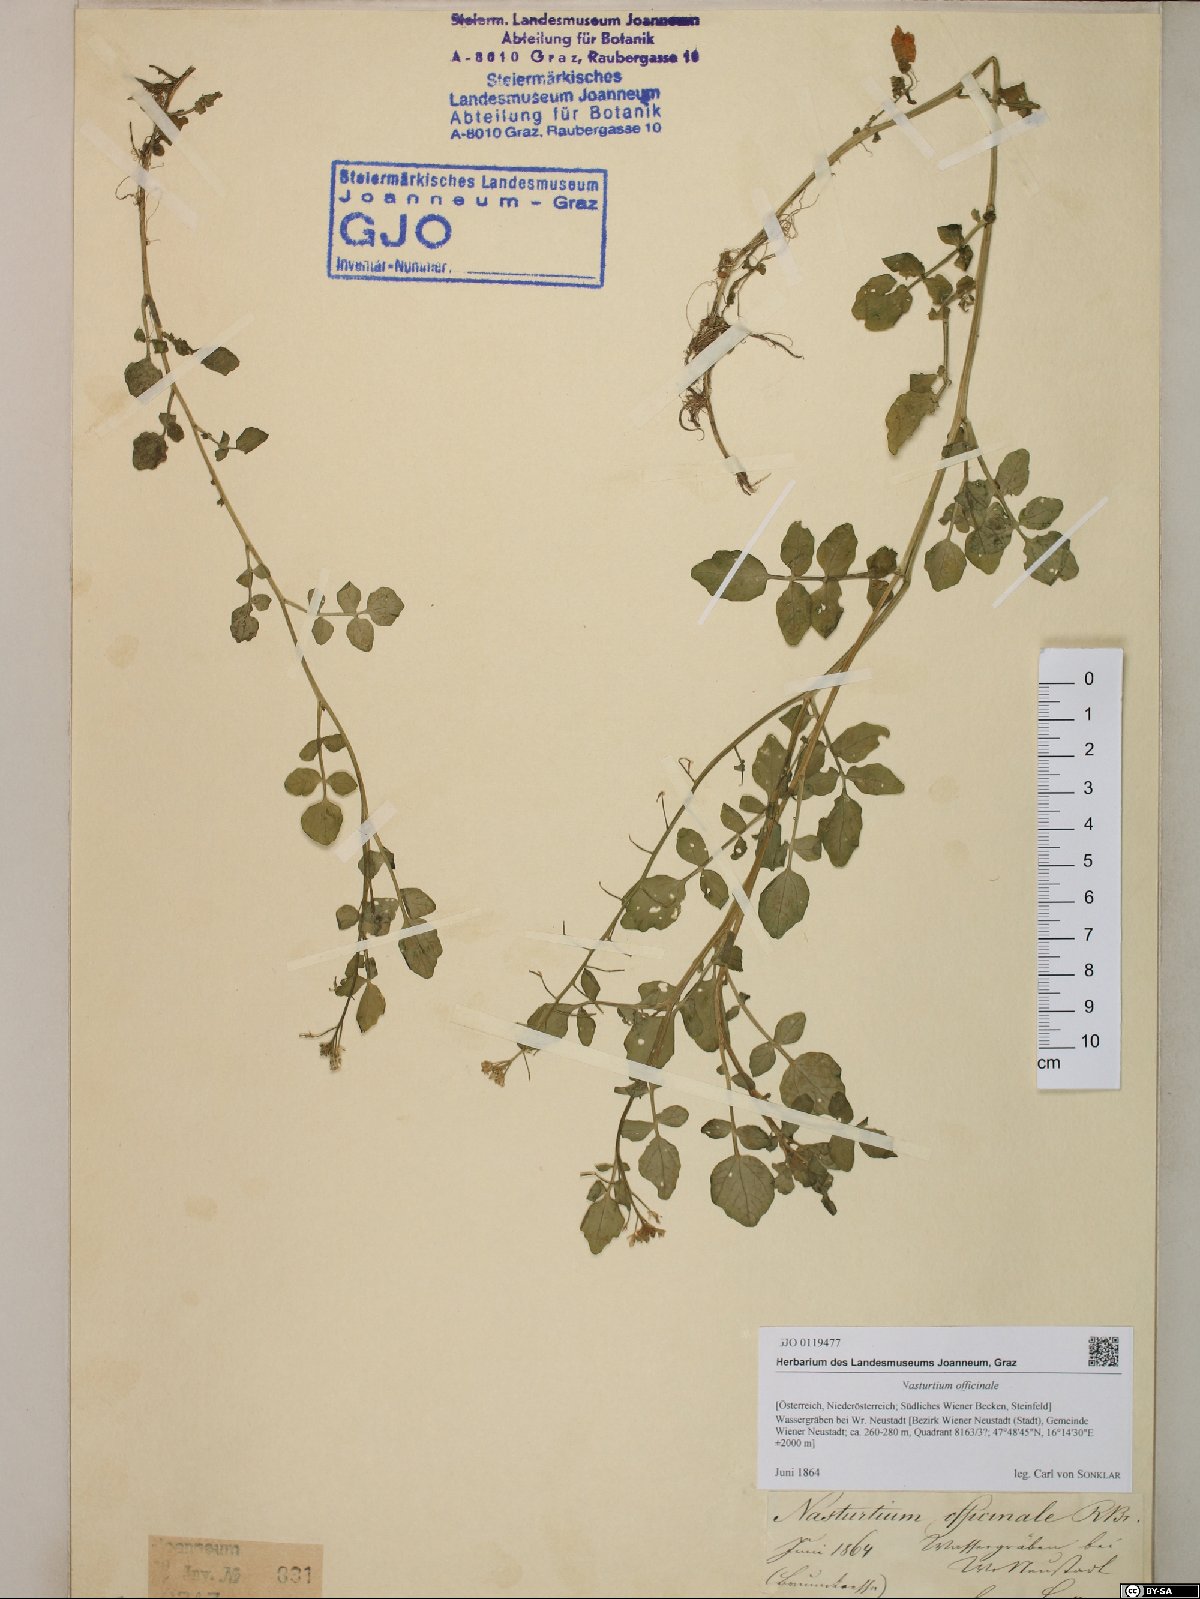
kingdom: Plantae
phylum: Tracheophyta
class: Magnoliopsida
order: Brassicales
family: Brassicaceae
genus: Nasturtium
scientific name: Nasturtium officinale
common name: Watercress
